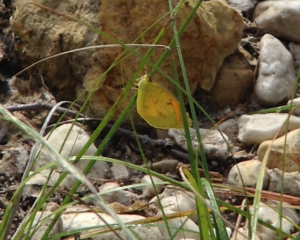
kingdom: Animalia
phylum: Arthropoda
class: Insecta
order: Lepidoptera
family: Pieridae
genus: Colias
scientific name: Colias eurytheme
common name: Orange Sulphur
